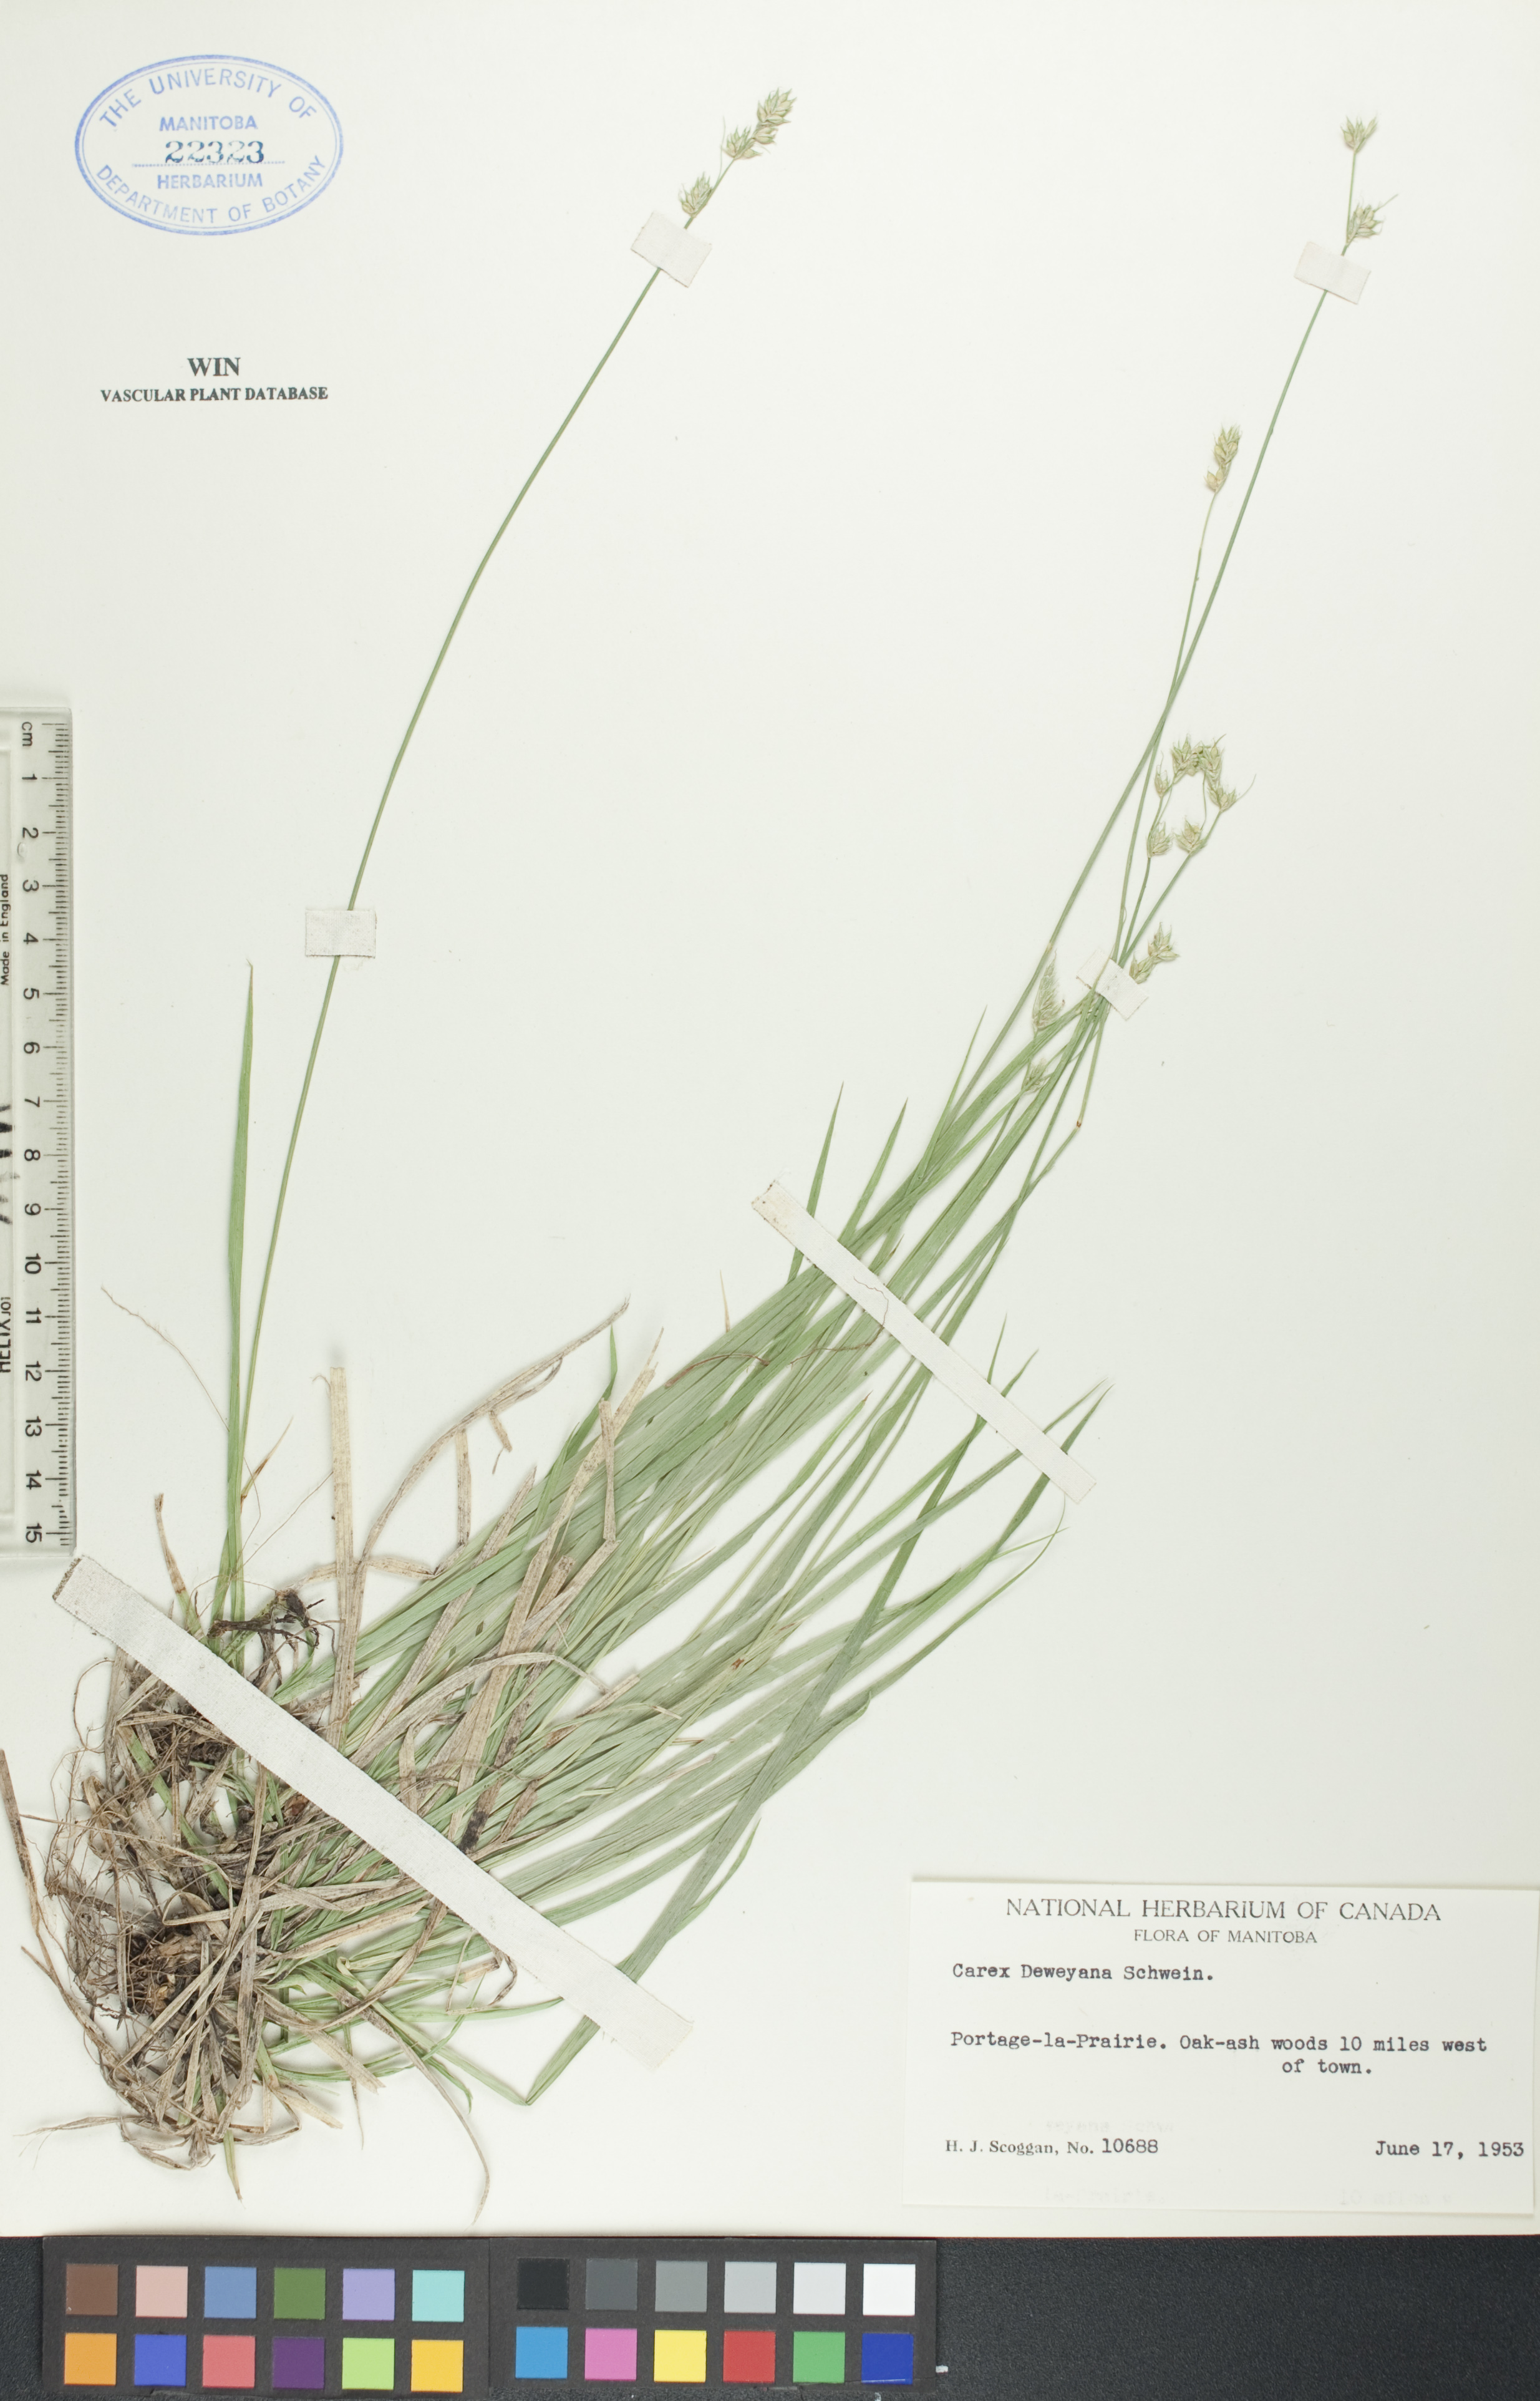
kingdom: Plantae
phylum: Tracheophyta
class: Liliopsida
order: Poales
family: Cyperaceae
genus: Carex
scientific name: Carex deweyana
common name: Dewey's sedge
